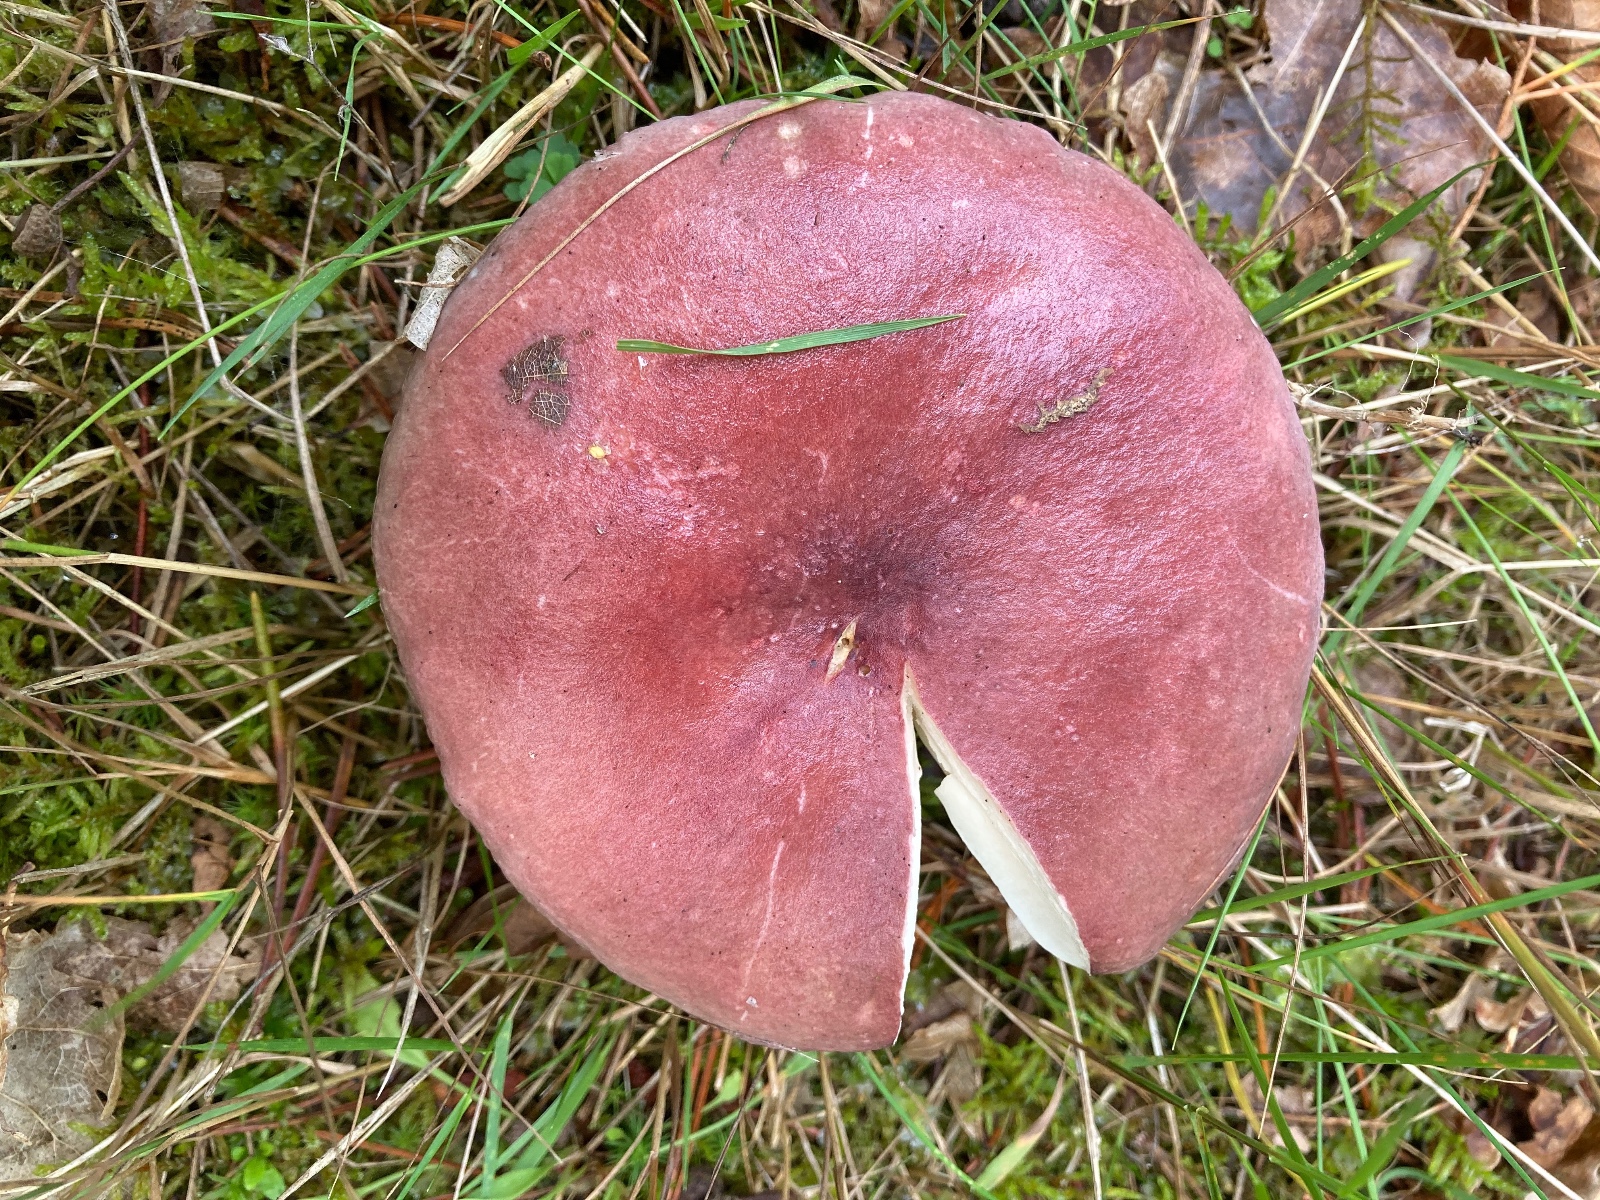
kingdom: Fungi
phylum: Basidiomycota
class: Agaricomycetes
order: Russulales
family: Russulaceae
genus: Russula
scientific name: Russula queletii
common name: Quélets skørhat
